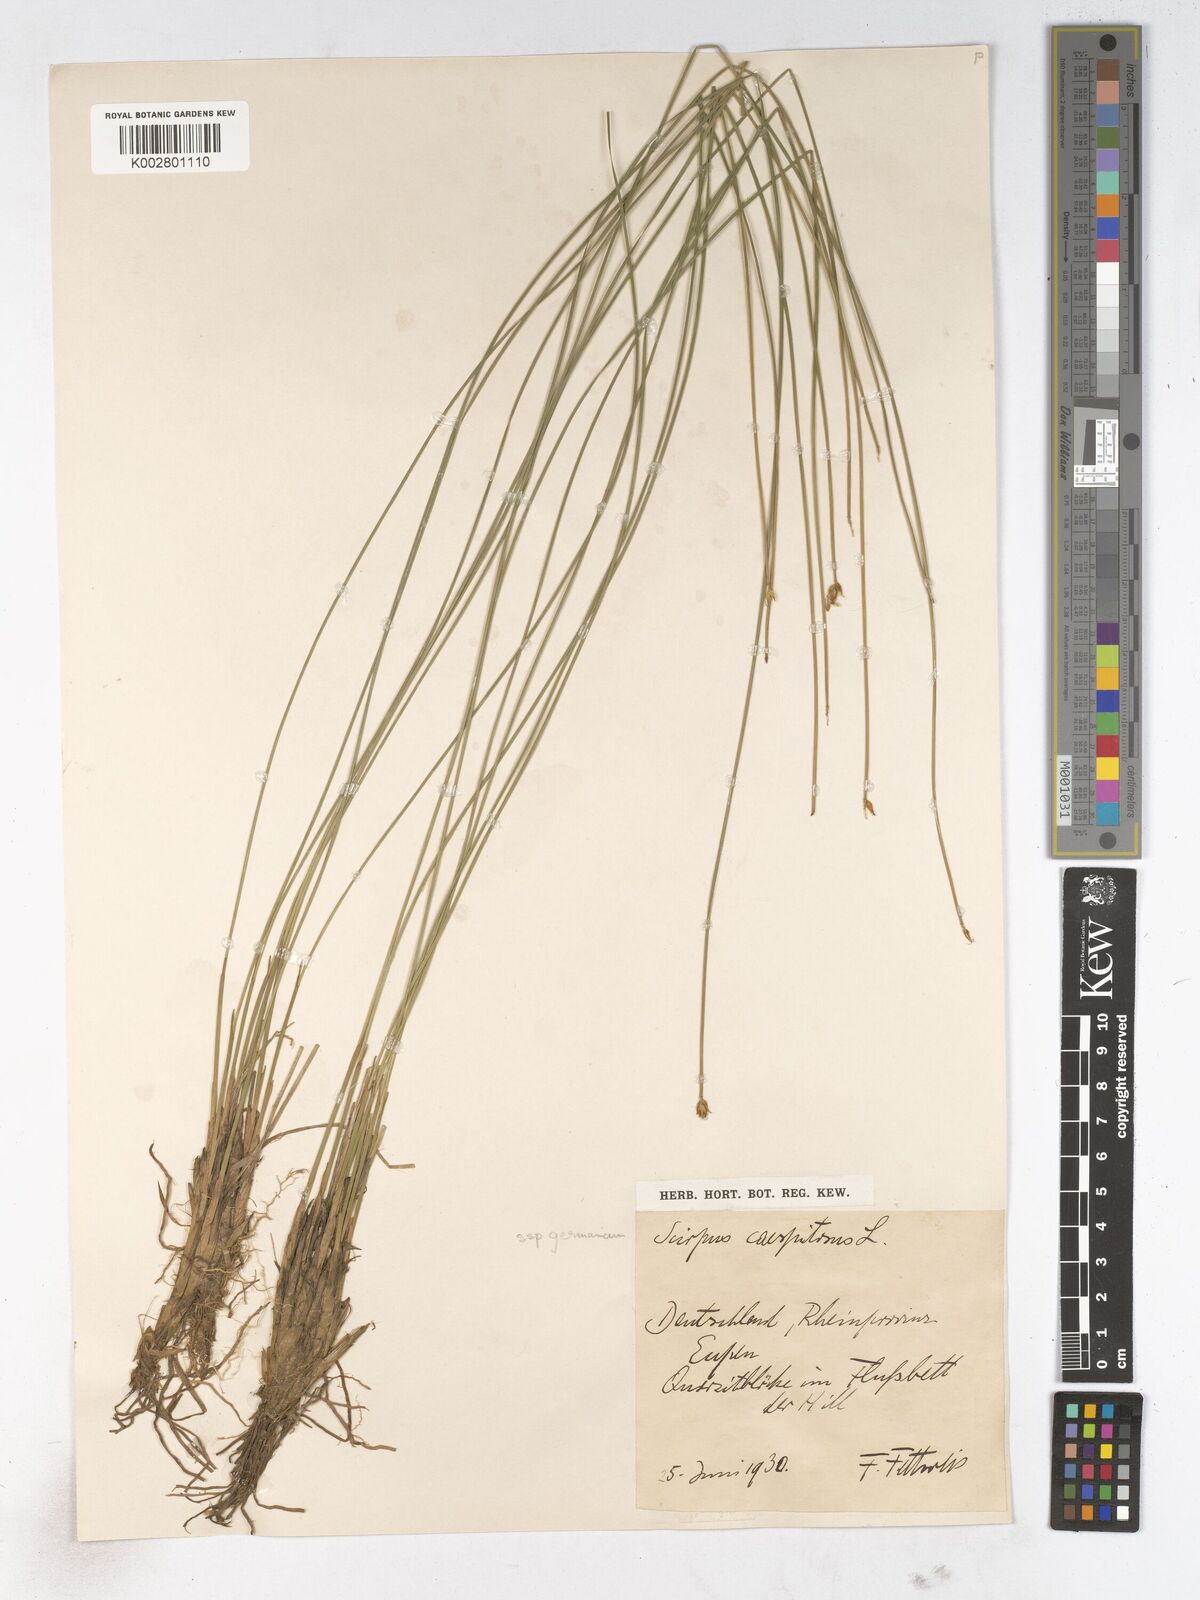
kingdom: Plantae
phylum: Tracheophyta
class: Liliopsida
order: Poales
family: Cyperaceae
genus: Trichophorum
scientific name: Trichophorum cespitosum
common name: Cespitose bulrush
